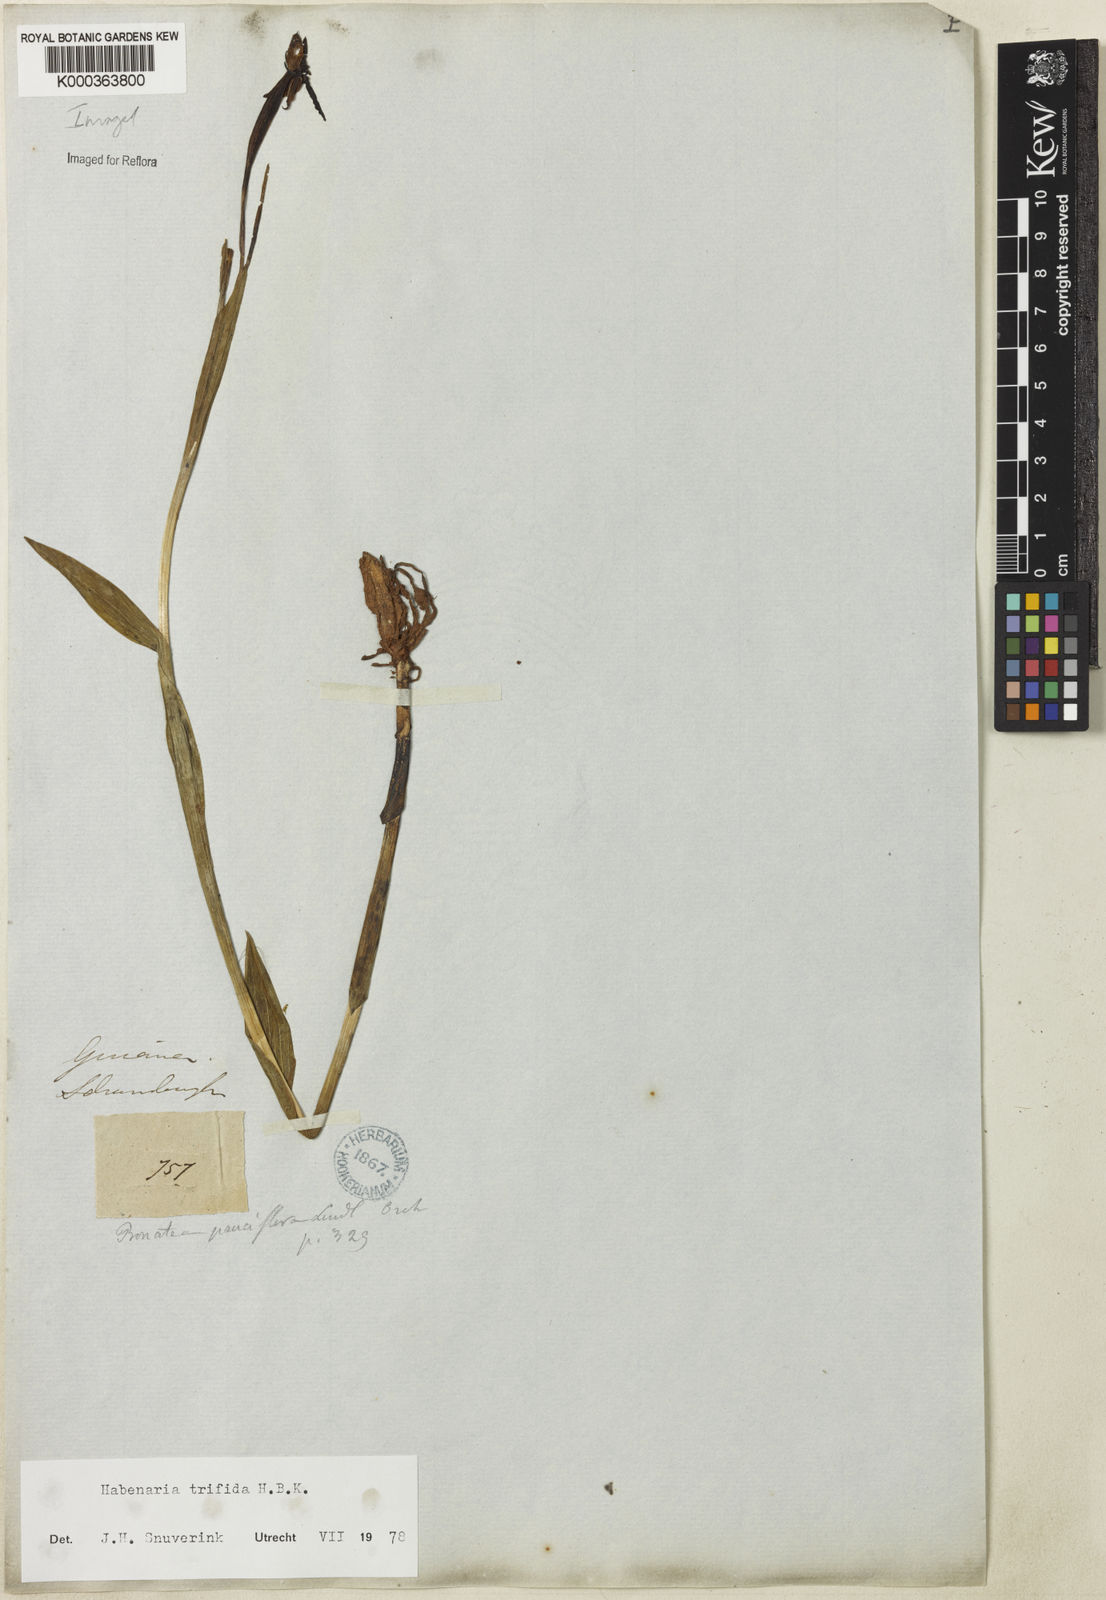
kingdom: Plantae
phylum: Tracheophyta
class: Liliopsida
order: Asparagales
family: Orchidaceae
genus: Habenaria
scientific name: Habenaria trifida
